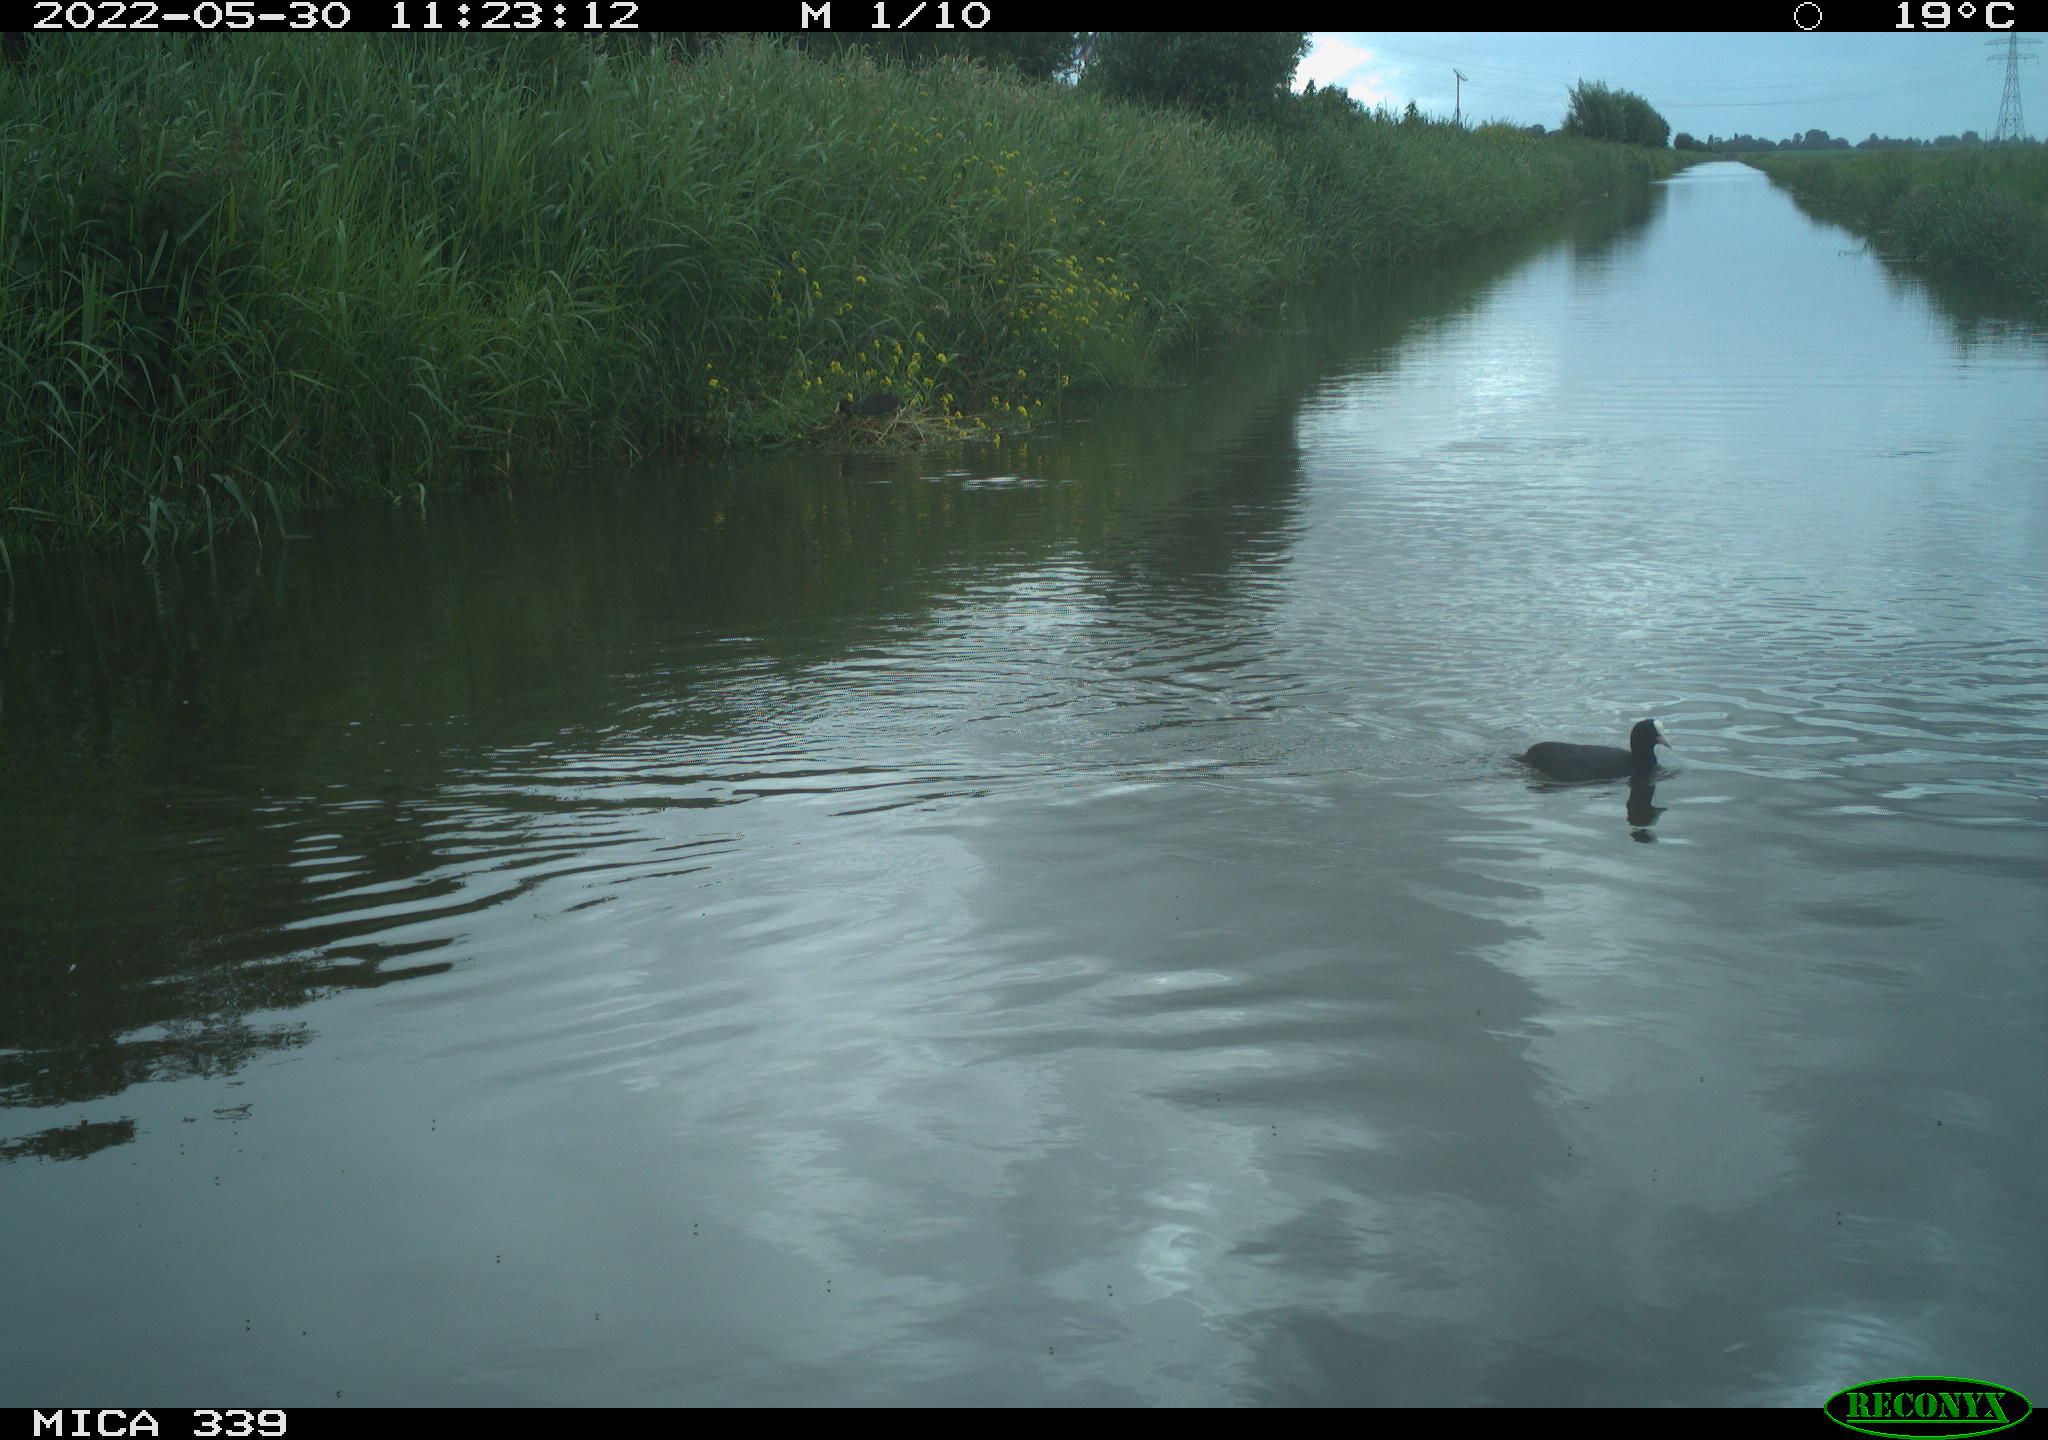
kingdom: Animalia
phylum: Chordata
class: Aves
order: Gruiformes
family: Rallidae
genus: Fulica
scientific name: Fulica atra
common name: Eurasian coot
